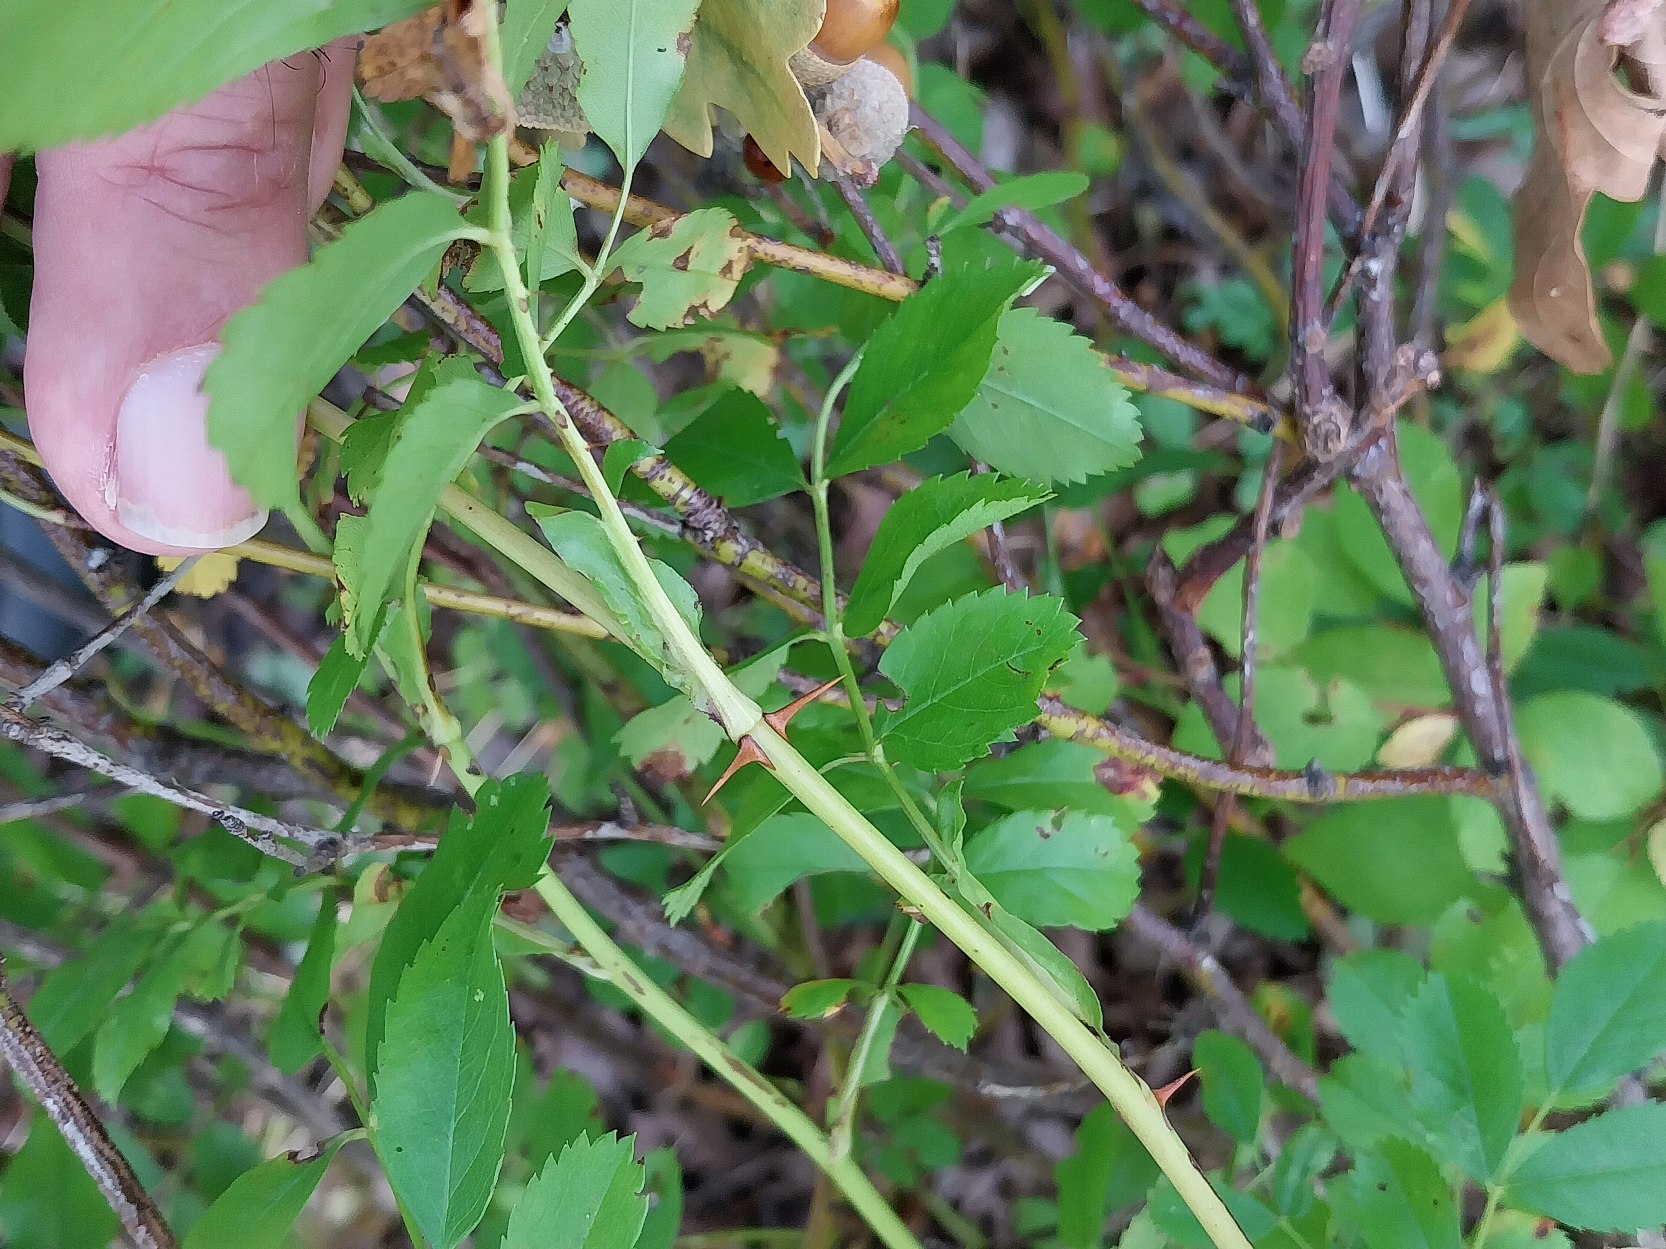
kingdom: Plantae
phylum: Tracheophyta
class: Magnoliopsida
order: Rosales
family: Rosaceae
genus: Rosa
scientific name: Rosa carolina
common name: Glansbladet rose
